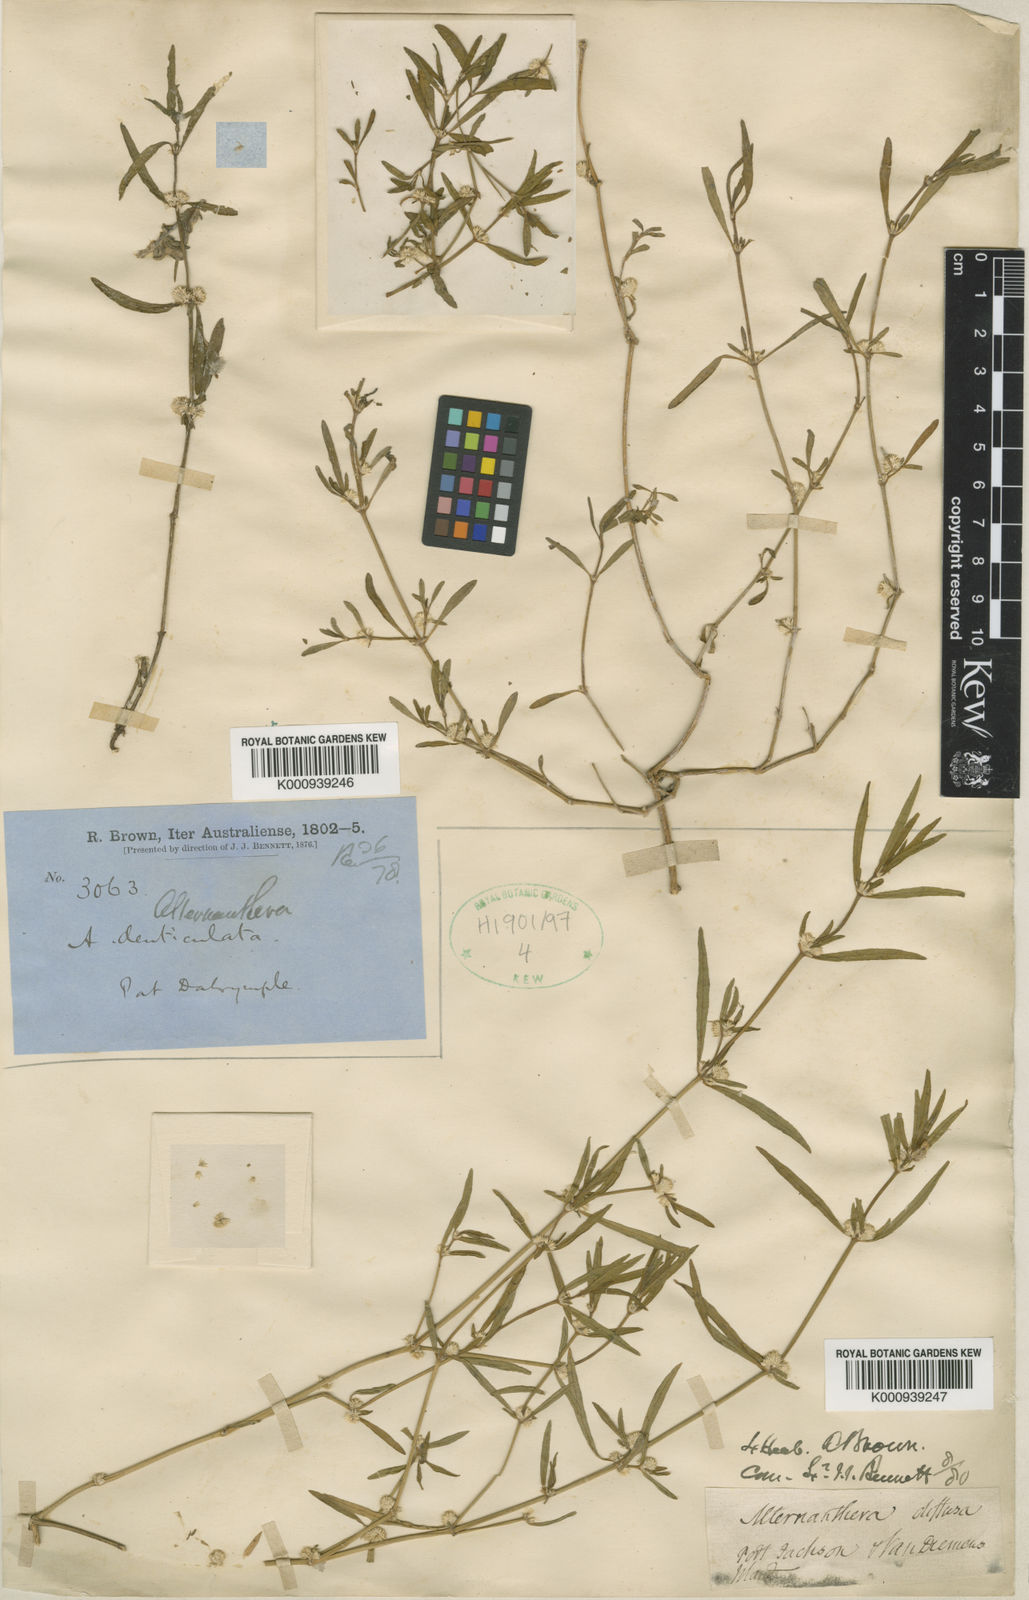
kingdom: Plantae
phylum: Tracheophyta
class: Magnoliopsida
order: Caryophyllales
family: Amaranthaceae
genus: Alternanthera
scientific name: Alternanthera denticulata
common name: Lesser joyweed
